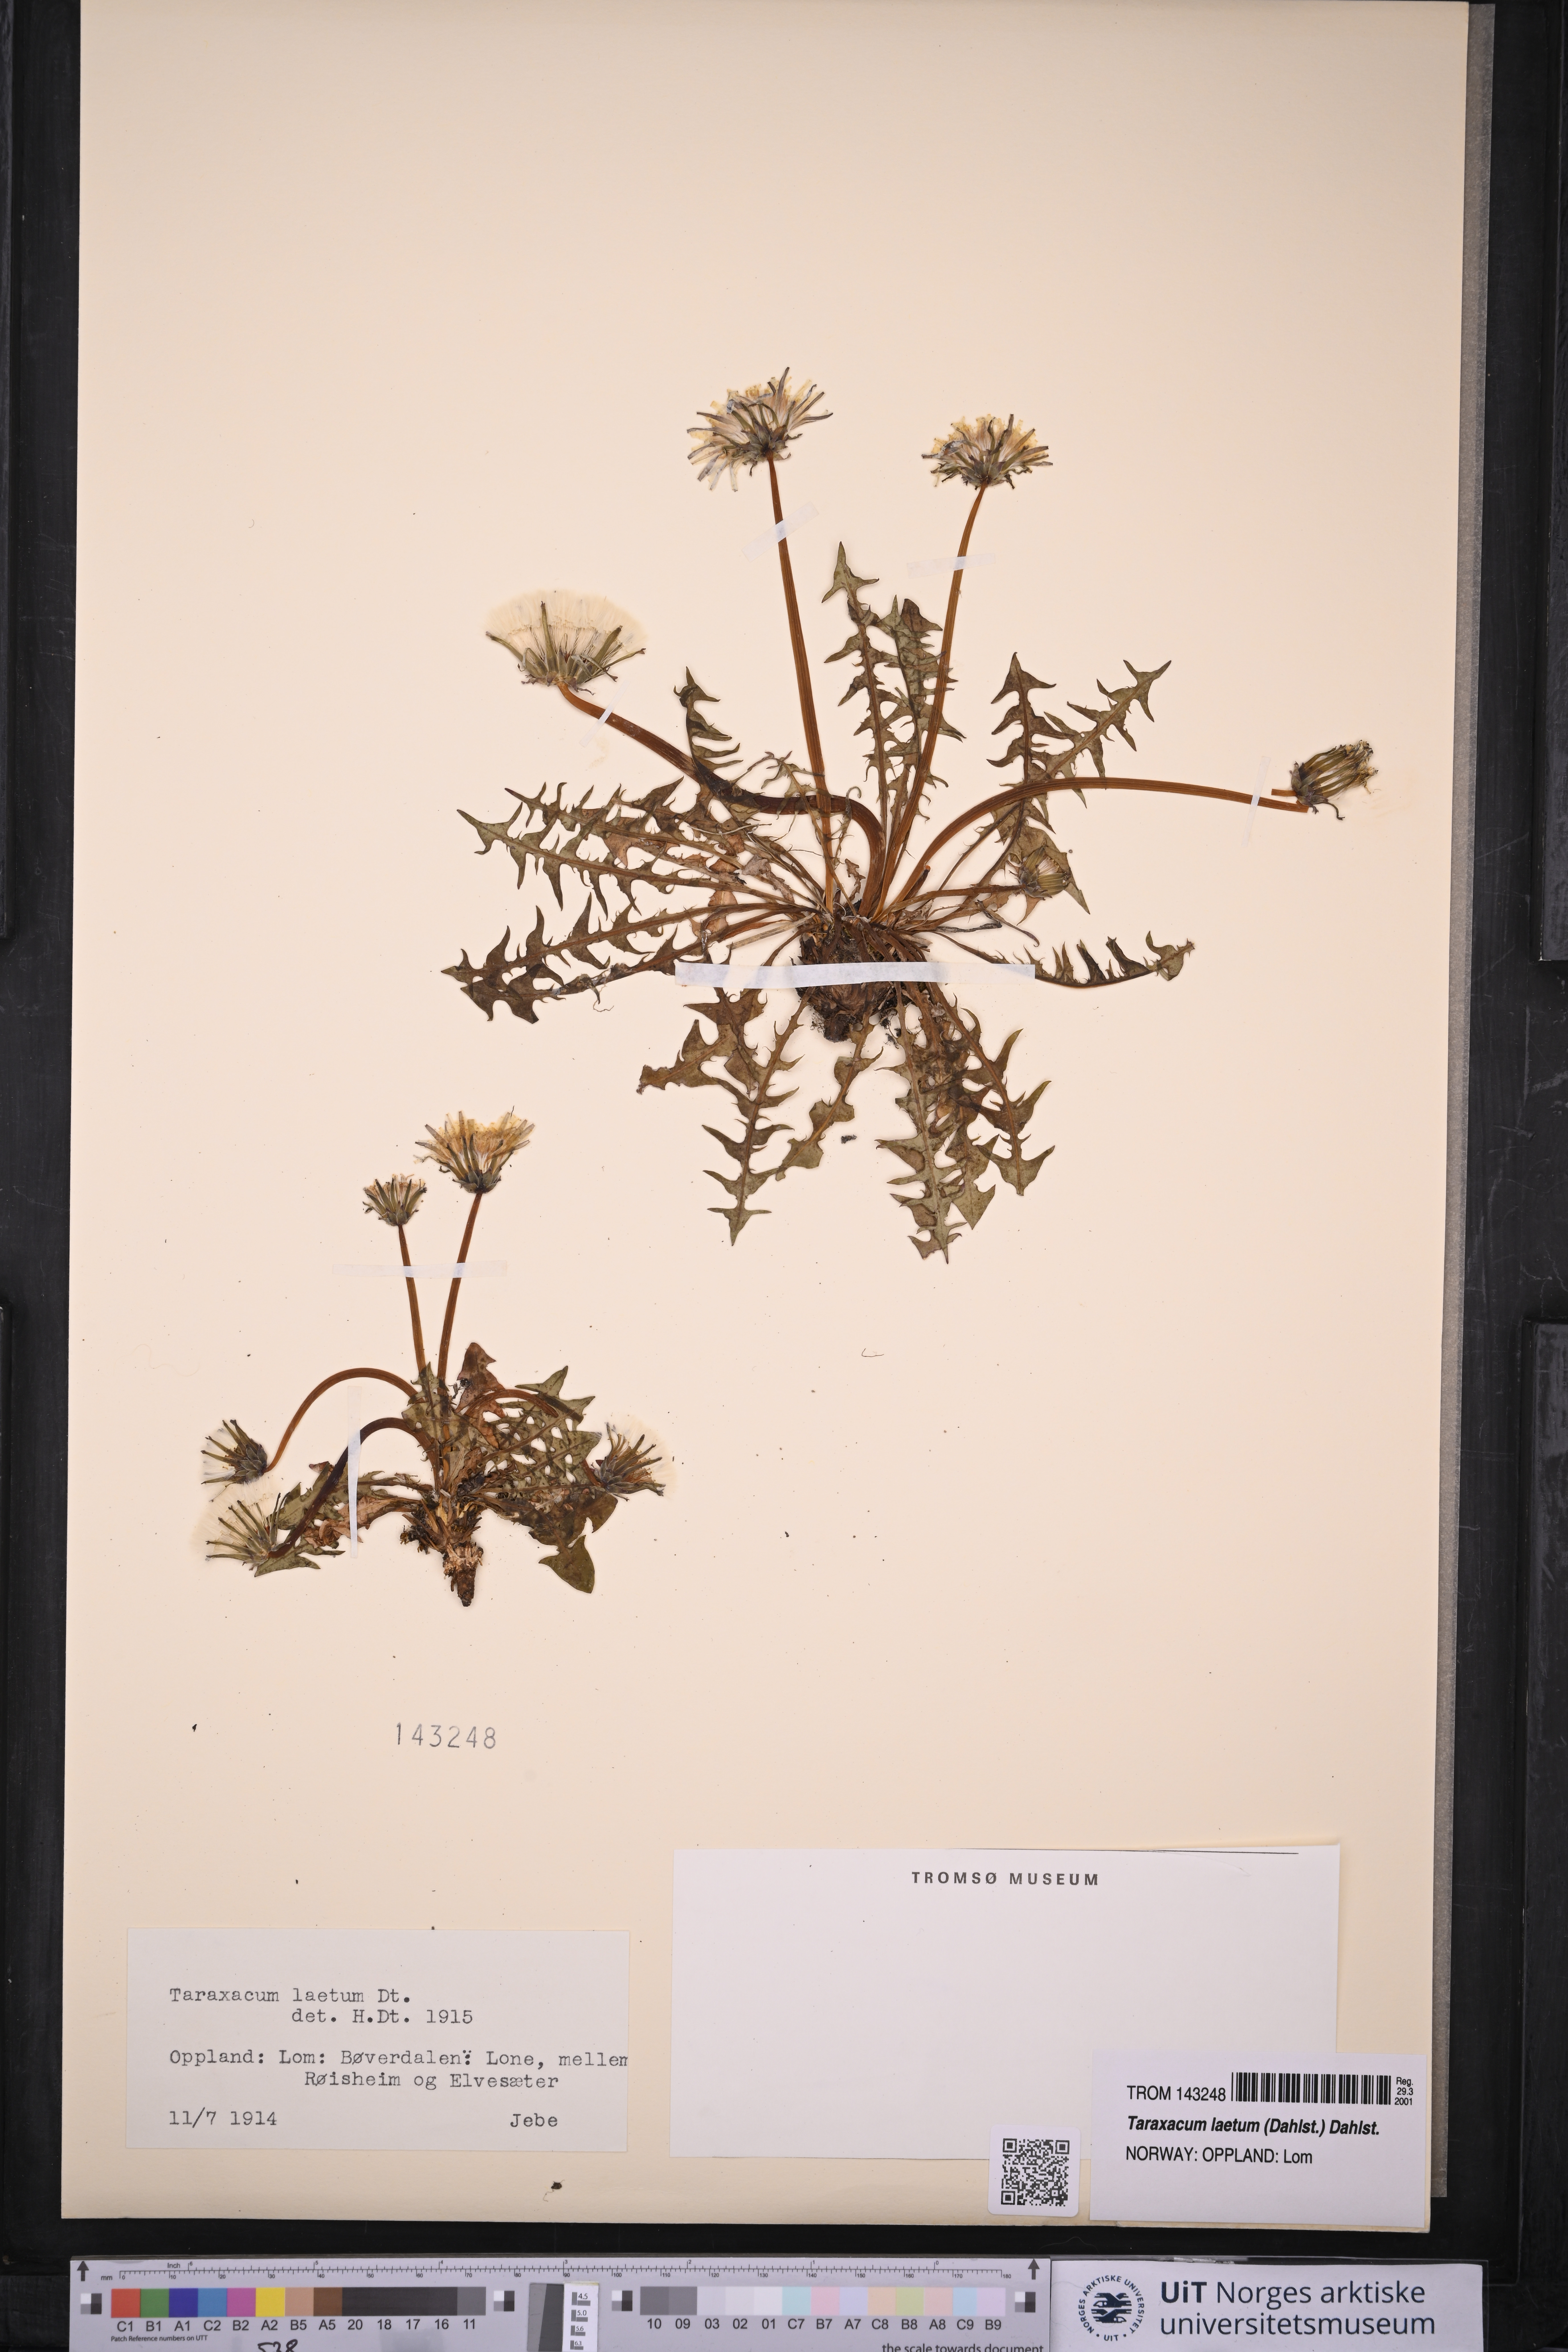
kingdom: Plantae
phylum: Tracheophyta
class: Magnoliopsida
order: Asterales
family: Asteraceae
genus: Taraxacum
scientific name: Taraxacum laetum
